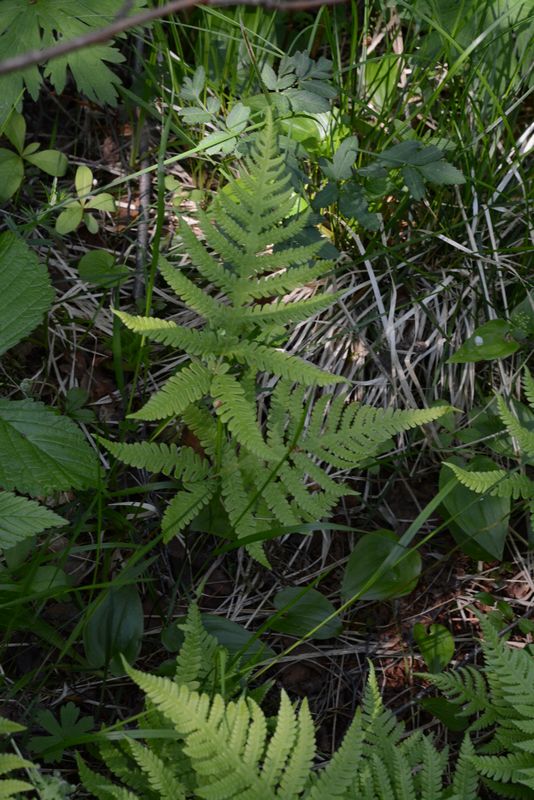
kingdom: Plantae
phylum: Tracheophyta
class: Polypodiopsida
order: Polypodiales
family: Thelypteridaceae
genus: Phegopteris
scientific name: Phegopteris connectilis
